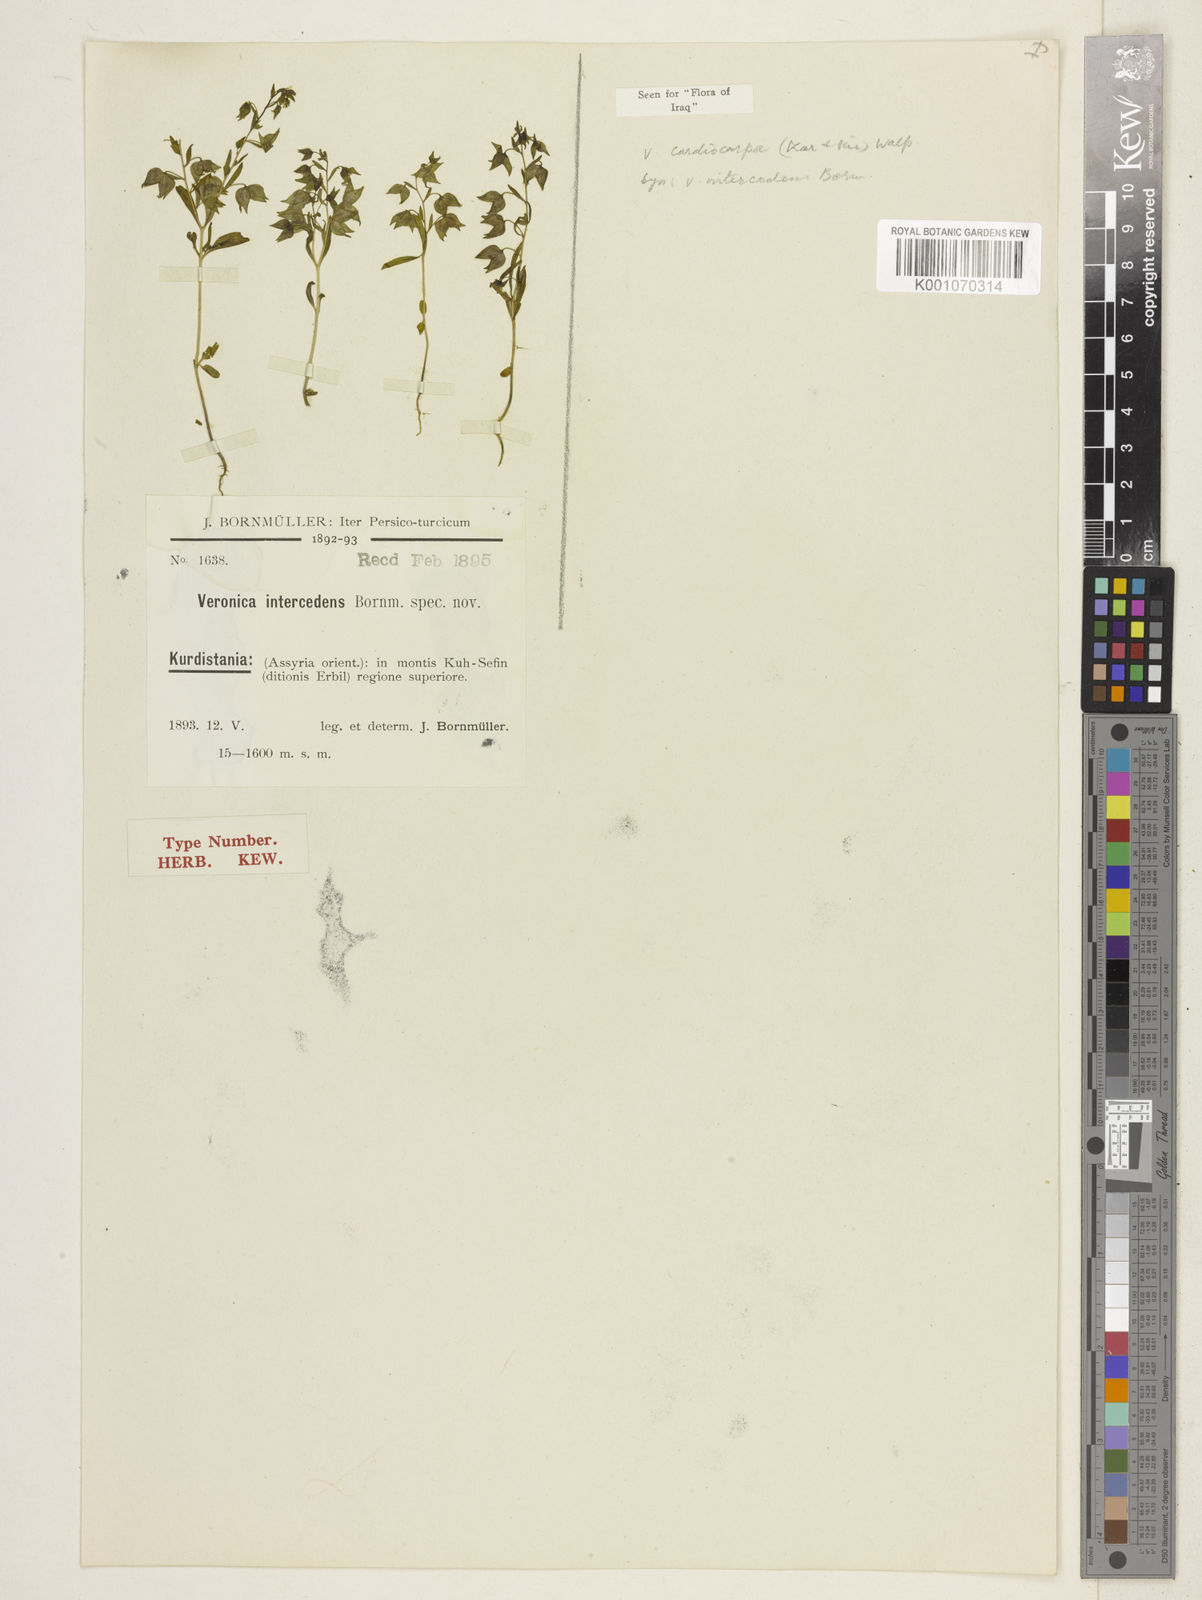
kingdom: Plantae
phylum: Tracheophyta
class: Magnoliopsida
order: Lamiales
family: Plantaginaceae
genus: Veronica
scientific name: Veronica intercedens
